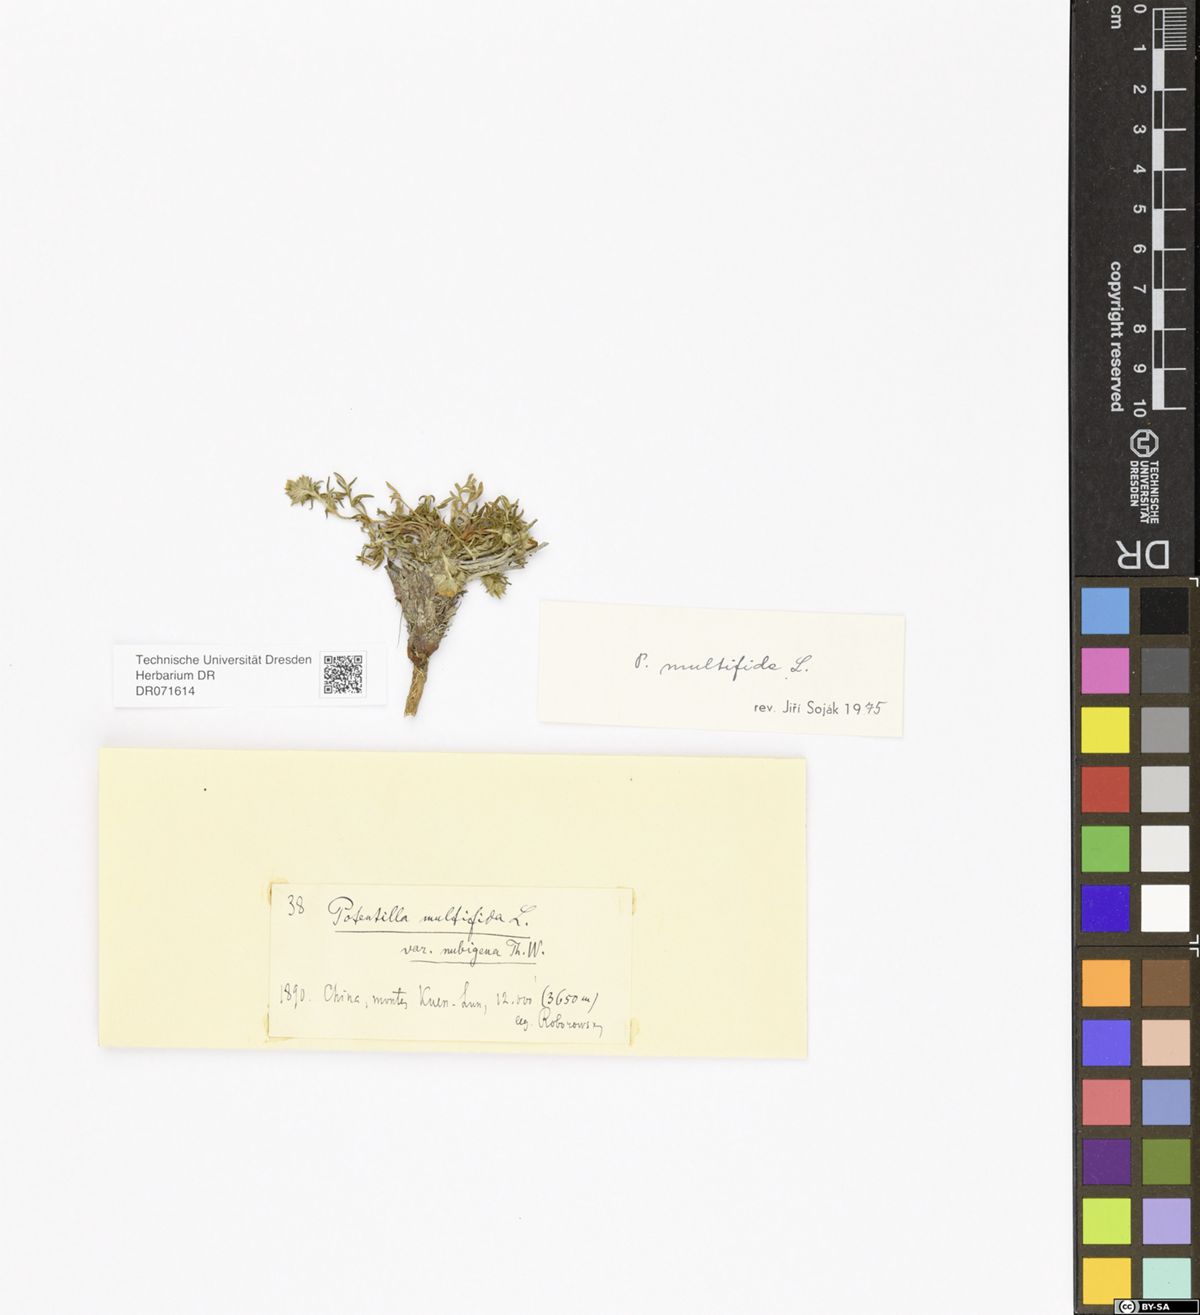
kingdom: Plantae
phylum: Tracheophyta
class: Magnoliopsida
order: Rosales
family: Rosaceae
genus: Potentilla
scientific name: Potentilla multifida
